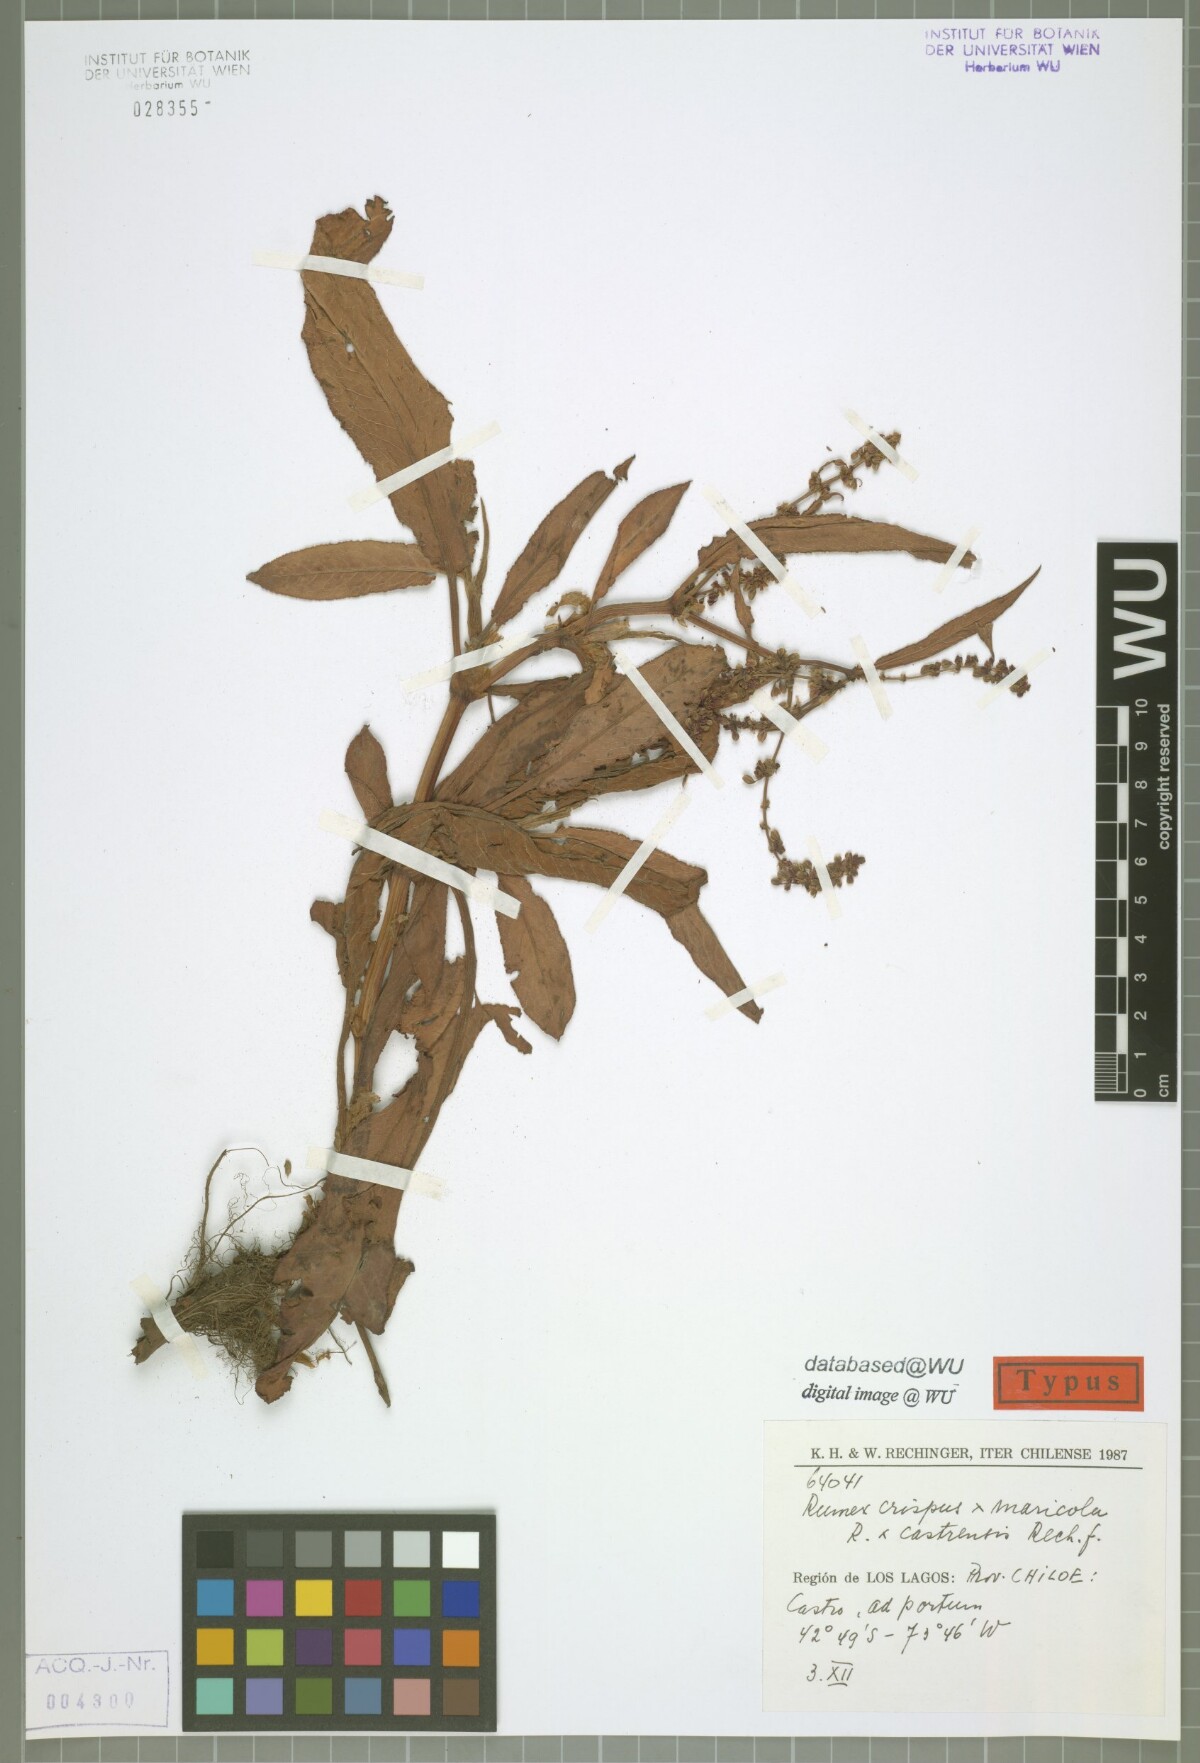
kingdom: Plantae
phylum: Tracheophyta
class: Magnoliopsida
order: Caryophyllales
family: Polygonaceae
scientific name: Polygonaceae
